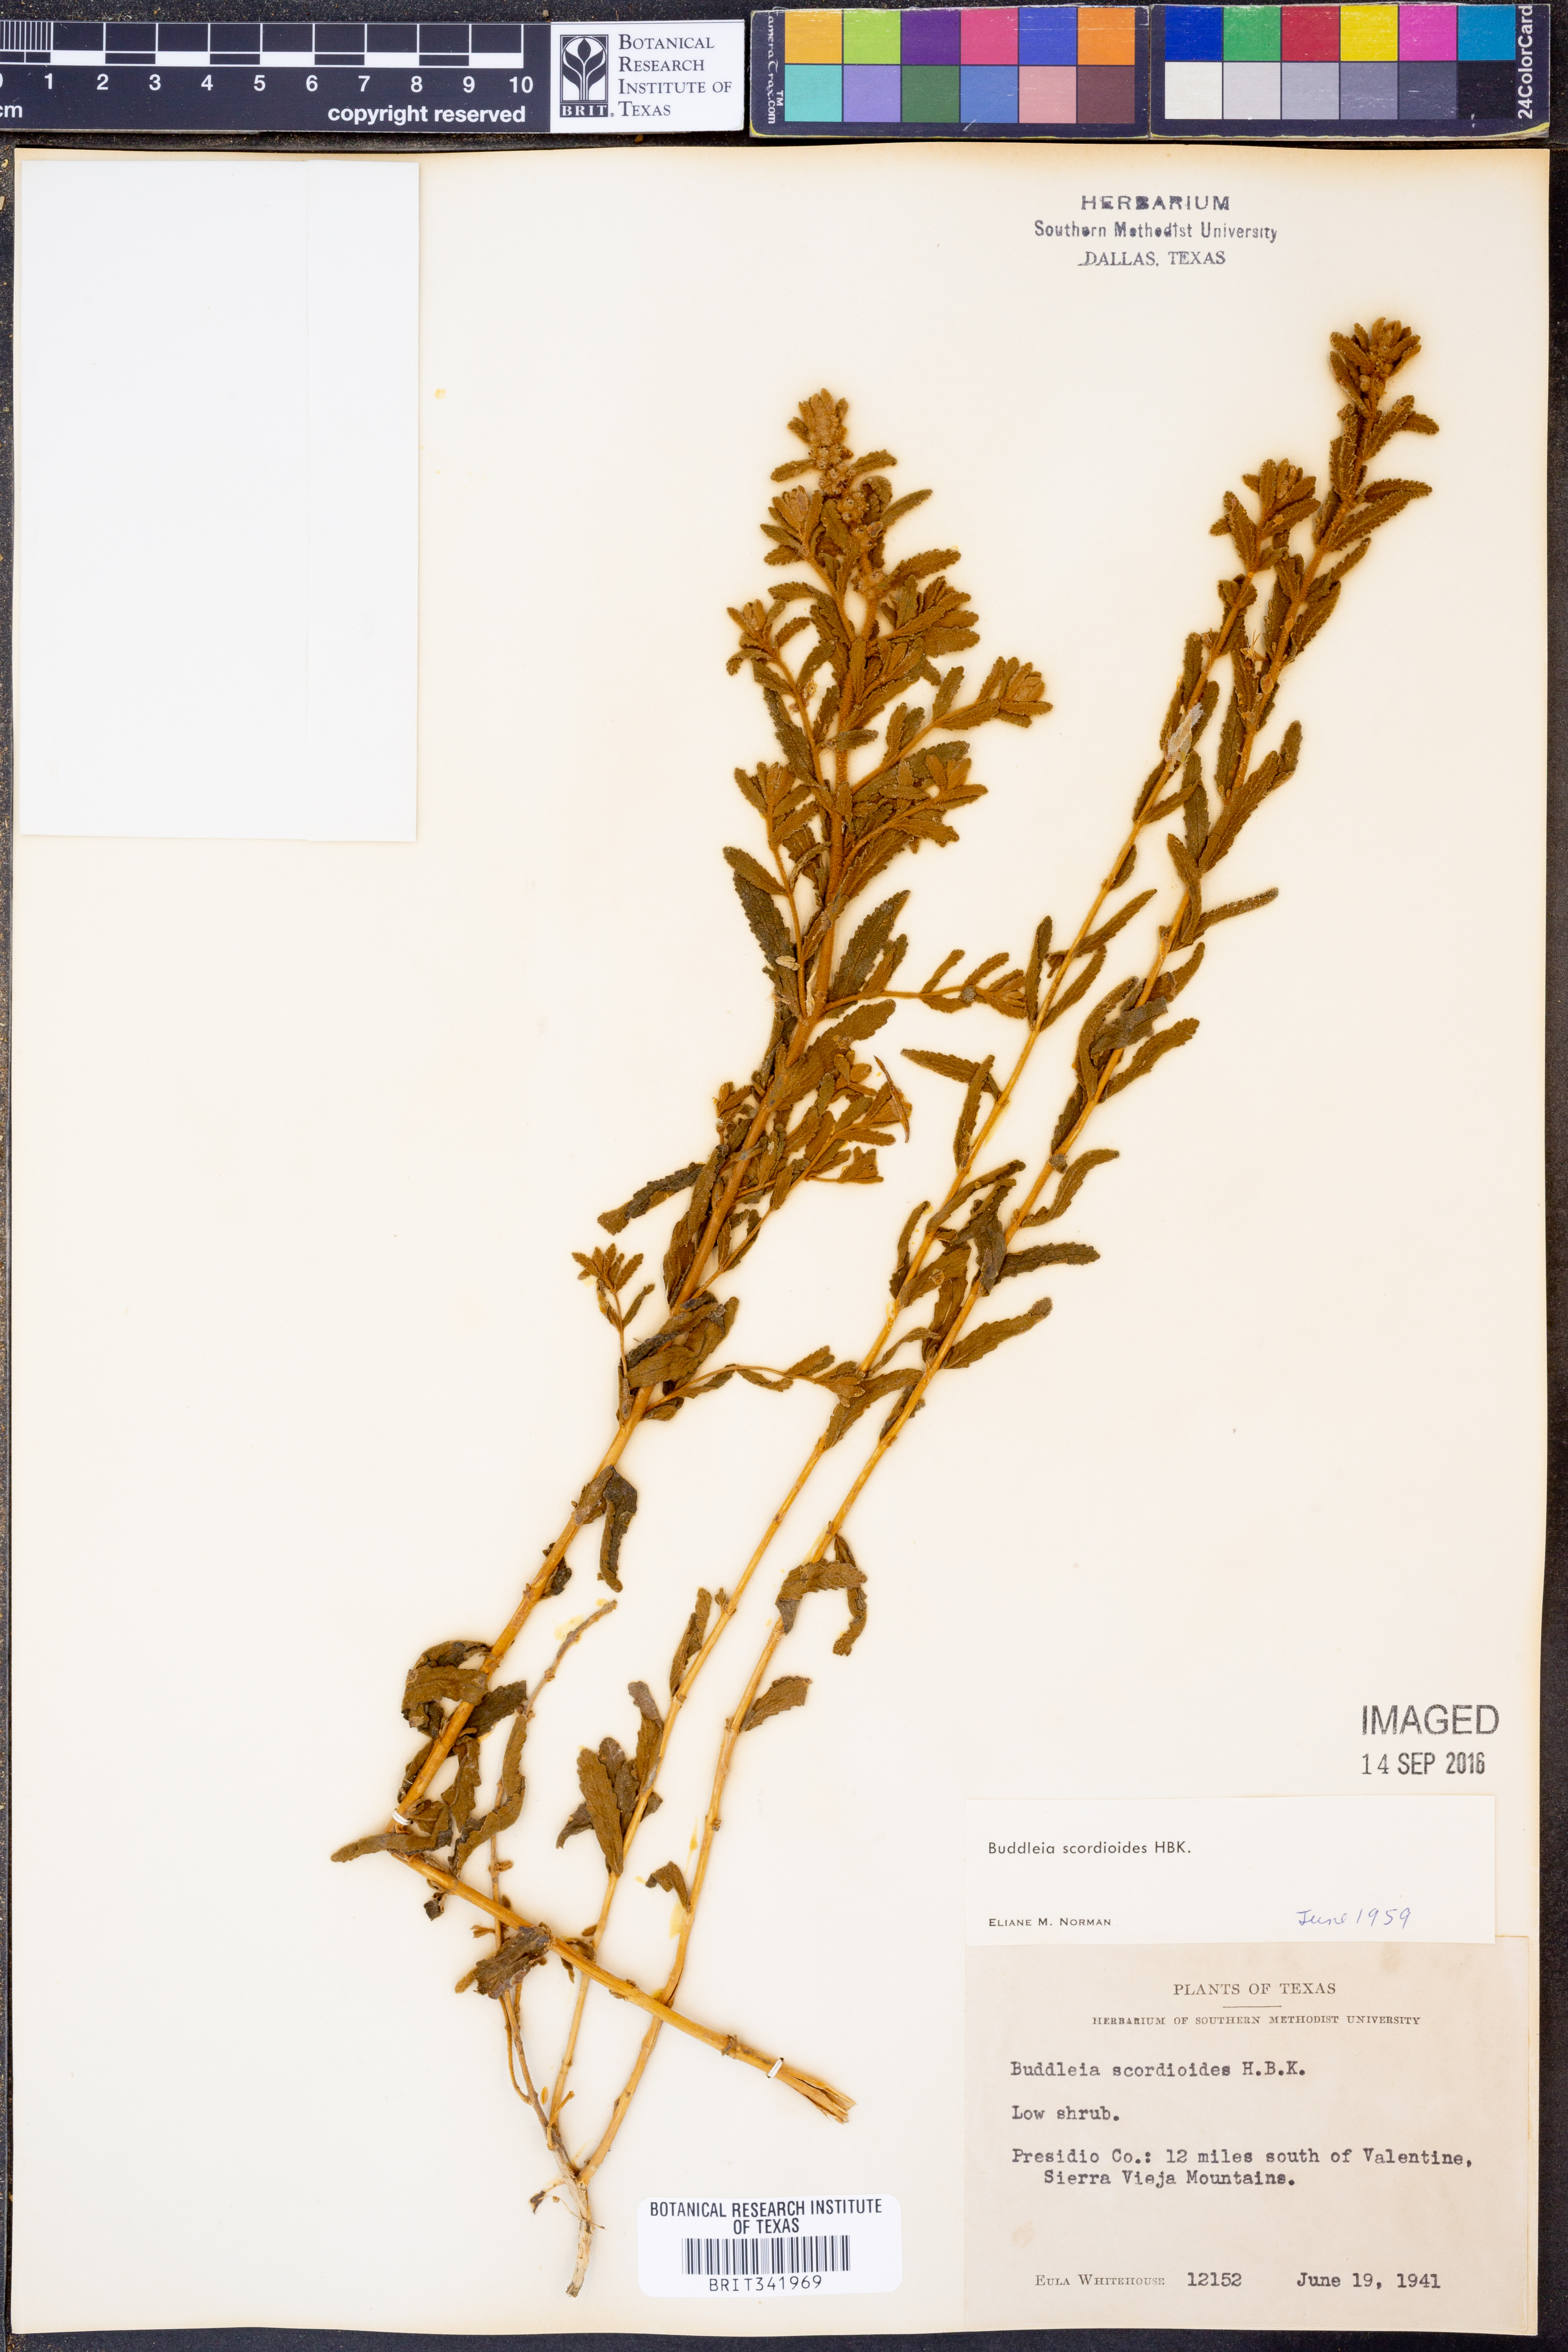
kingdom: Plantae
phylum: Tracheophyta
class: Magnoliopsida
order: Lamiales
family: Scrophulariaceae
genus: Buddleja
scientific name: Buddleja scordioides
